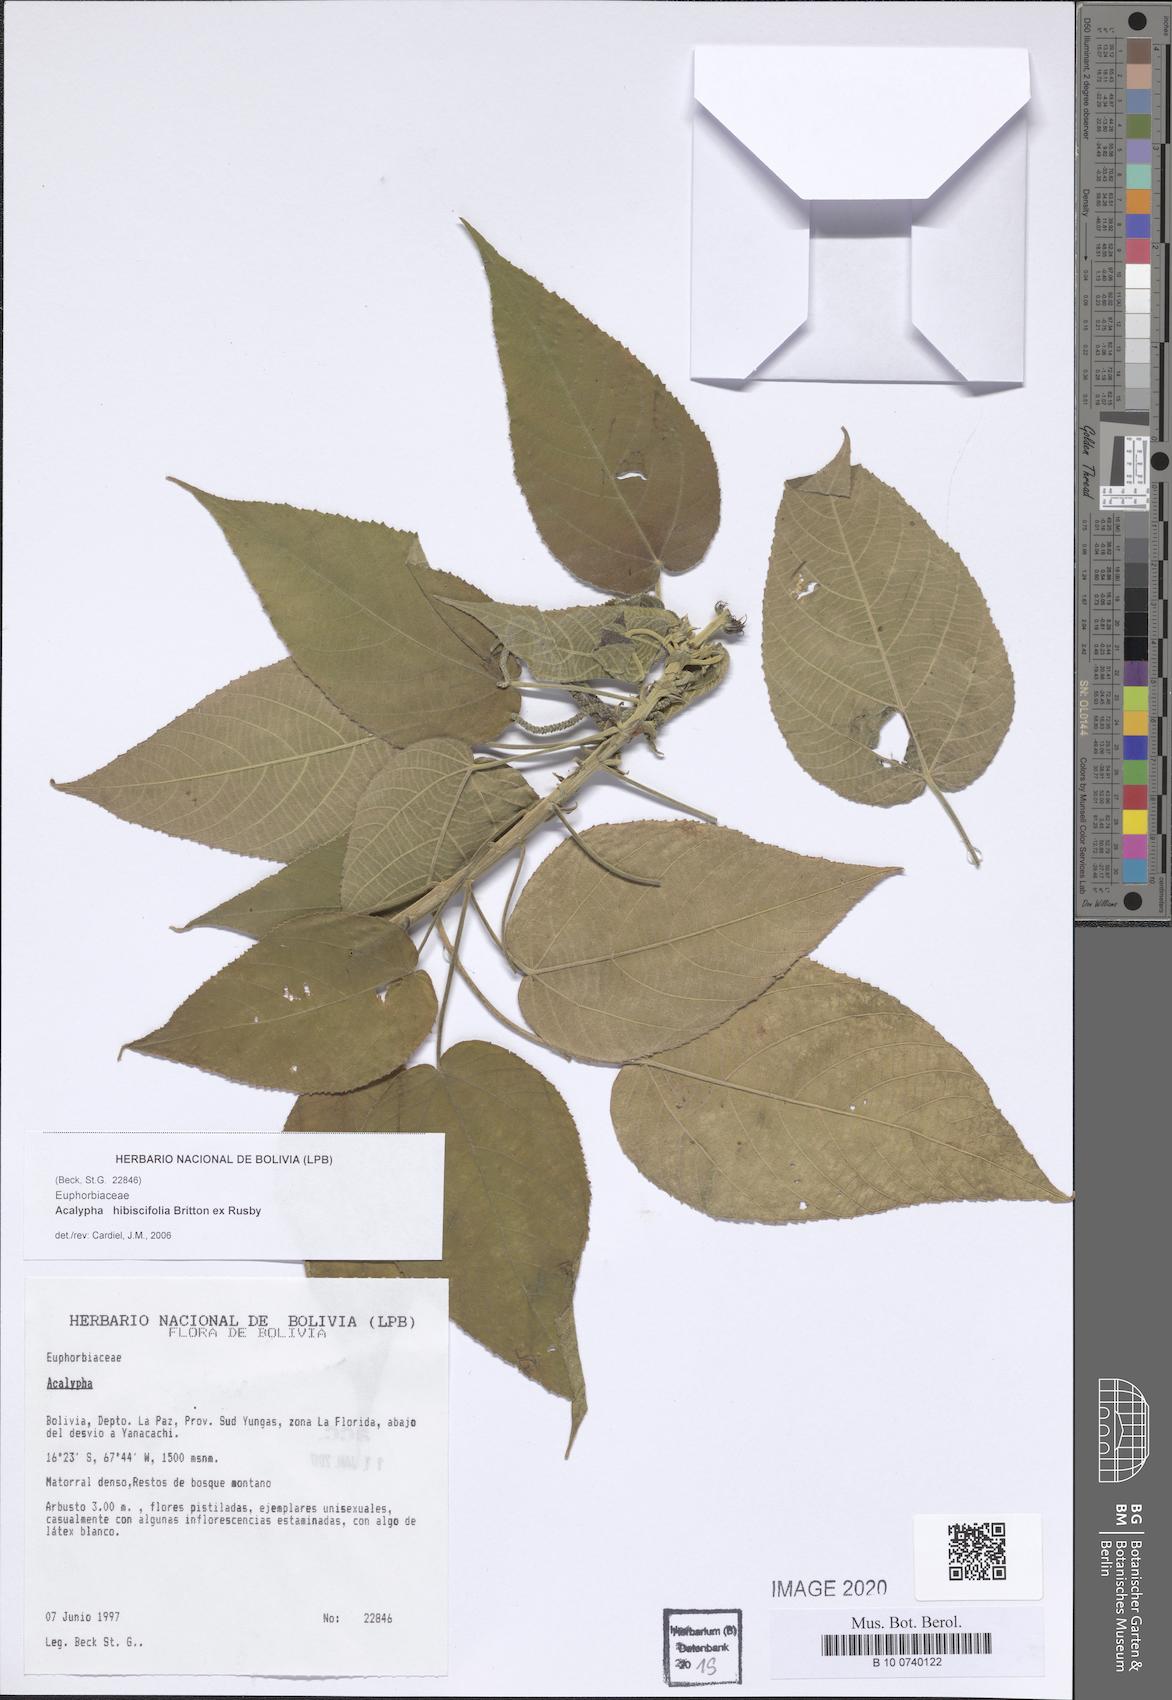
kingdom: Plantae
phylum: Tracheophyta
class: Magnoliopsida
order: Malpighiales
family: Euphorbiaceae
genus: Acalypha
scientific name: Acalypha hibiscifolia
